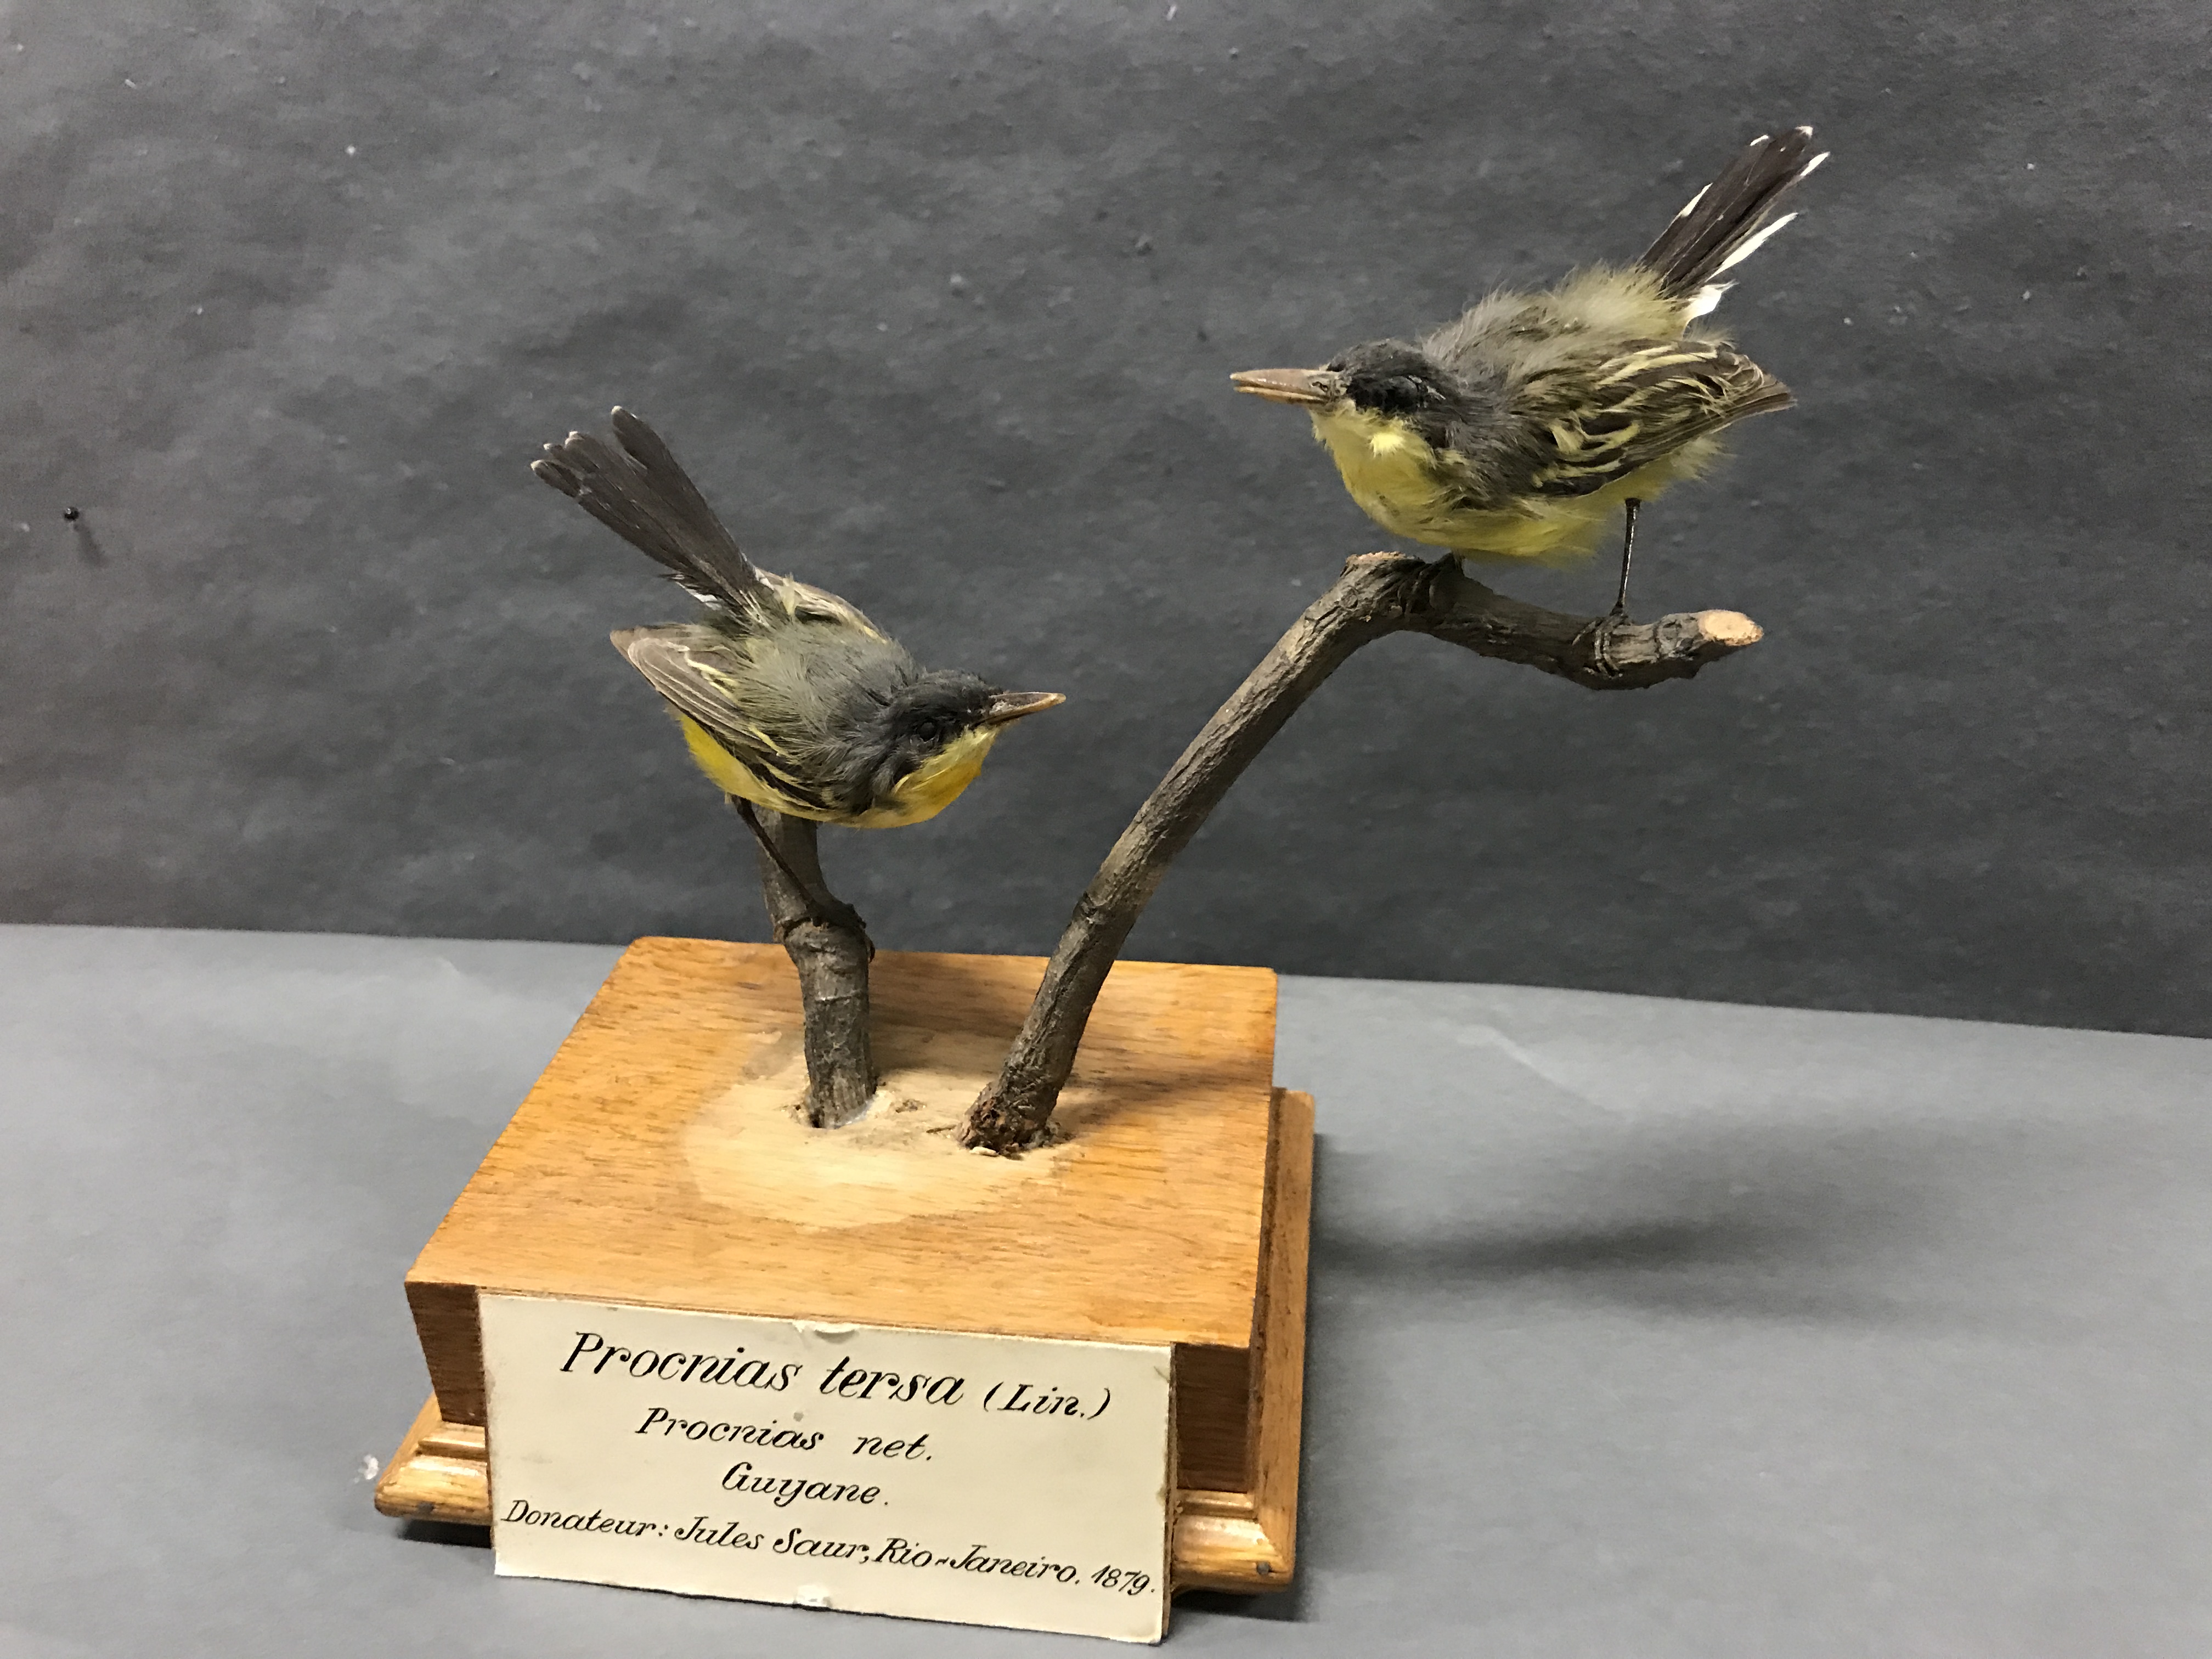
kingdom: Animalia
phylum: Chordata
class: Aves
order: Passeriformes
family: Tyrannidae
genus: Todirostrum
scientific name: Todirostrum cinereum
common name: Common tody-flycatcher
